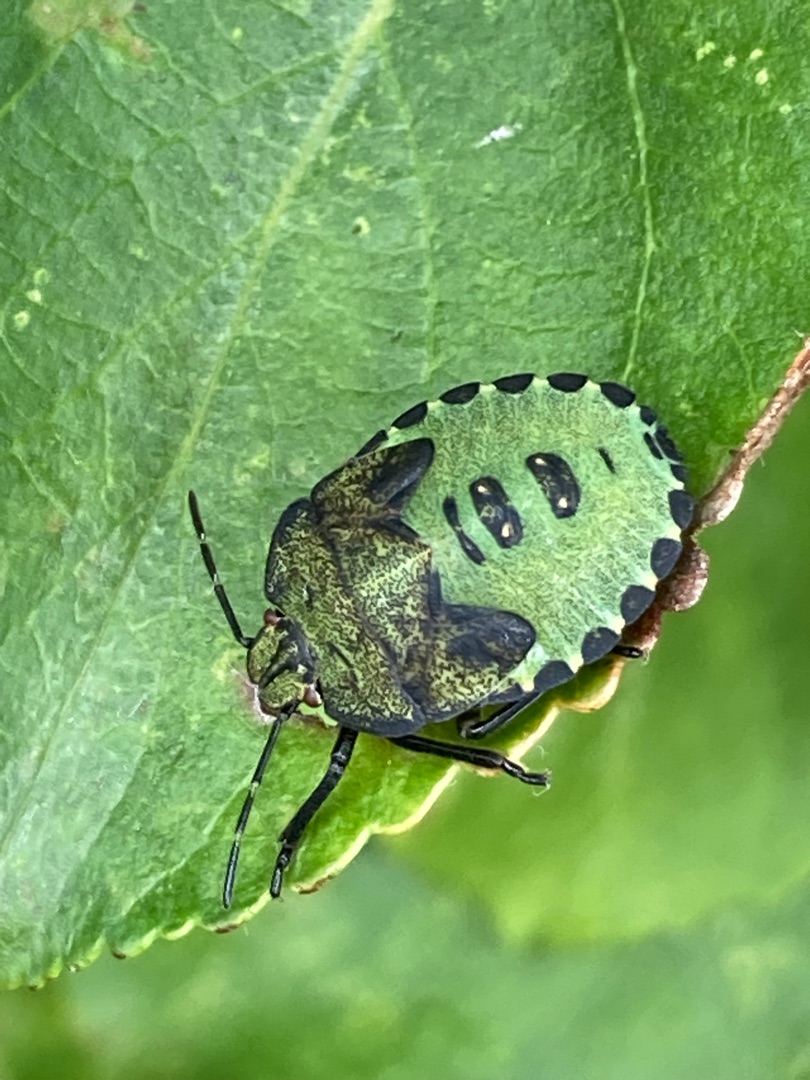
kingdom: Animalia
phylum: Arthropoda
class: Insecta
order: Hemiptera
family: Pentatomidae
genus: Palomena
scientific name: Palomena prasina
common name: Grøn bredtæge
